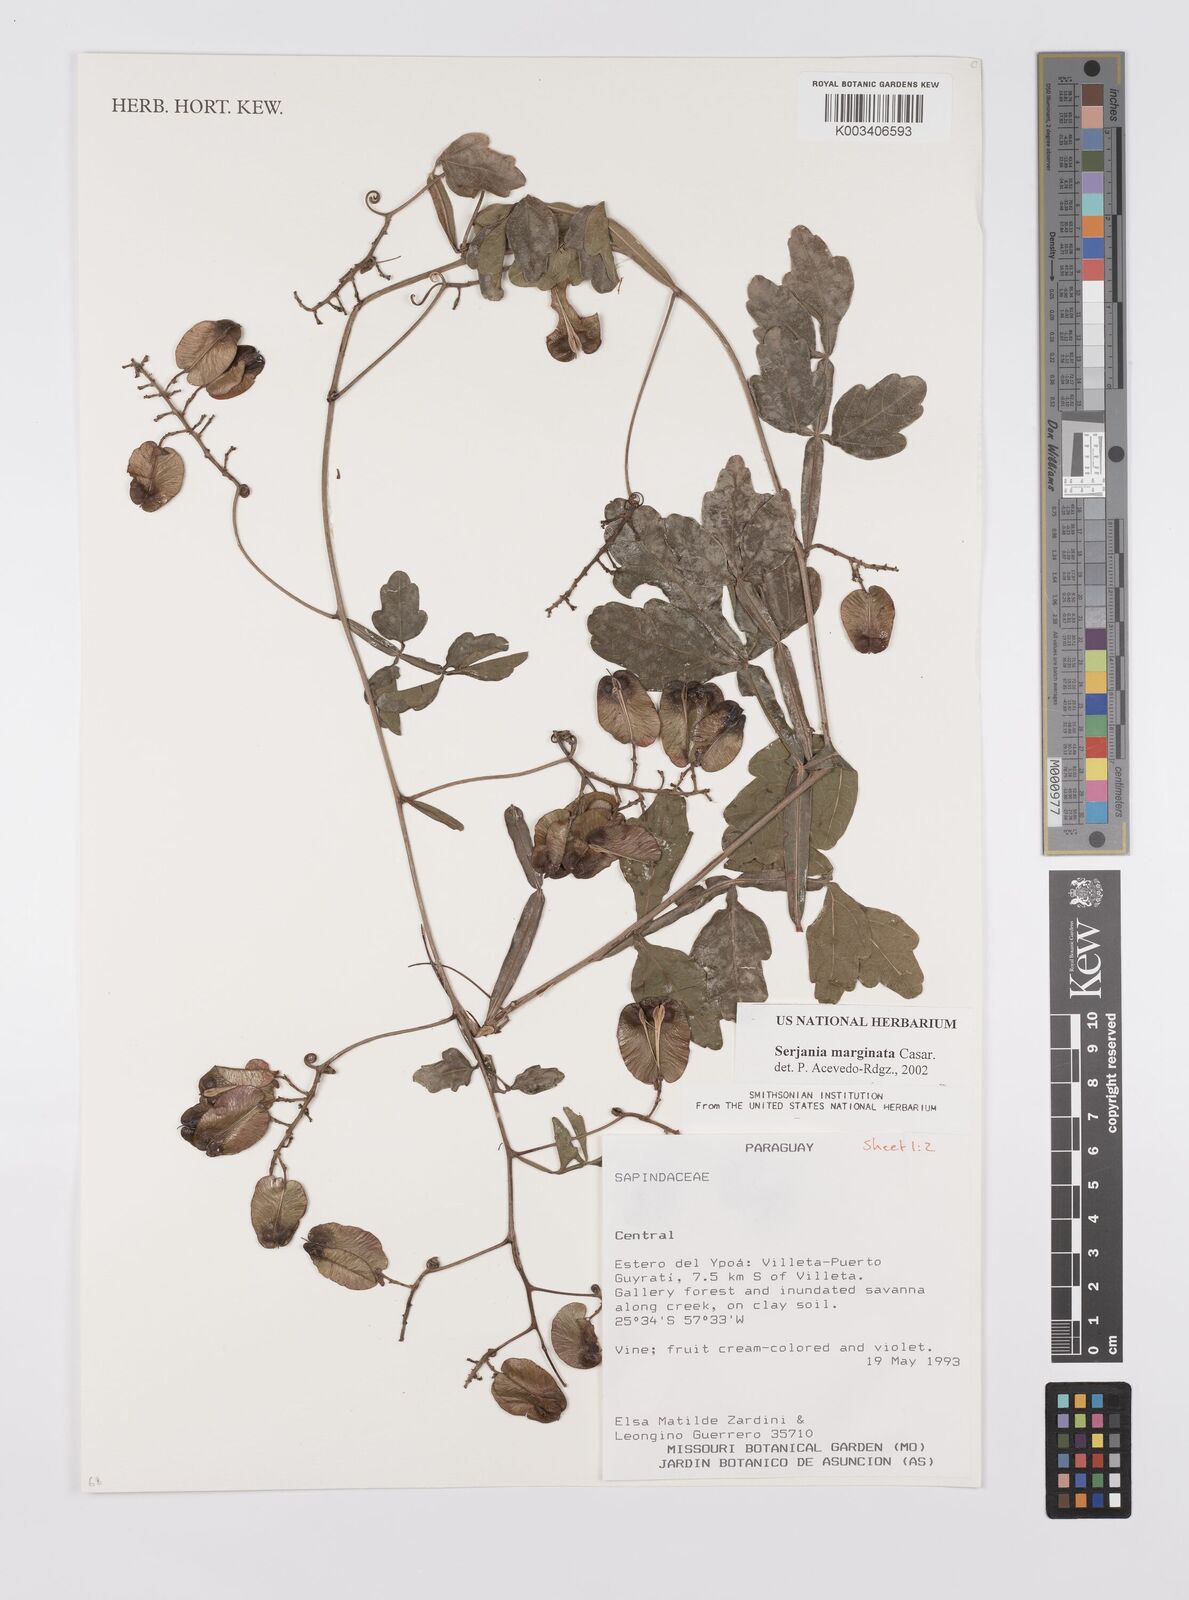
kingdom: Plantae
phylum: Tracheophyta
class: Magnoliopsida
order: Sapindales
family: Sapindaceae
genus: Serjania
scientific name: Serjania marginata
